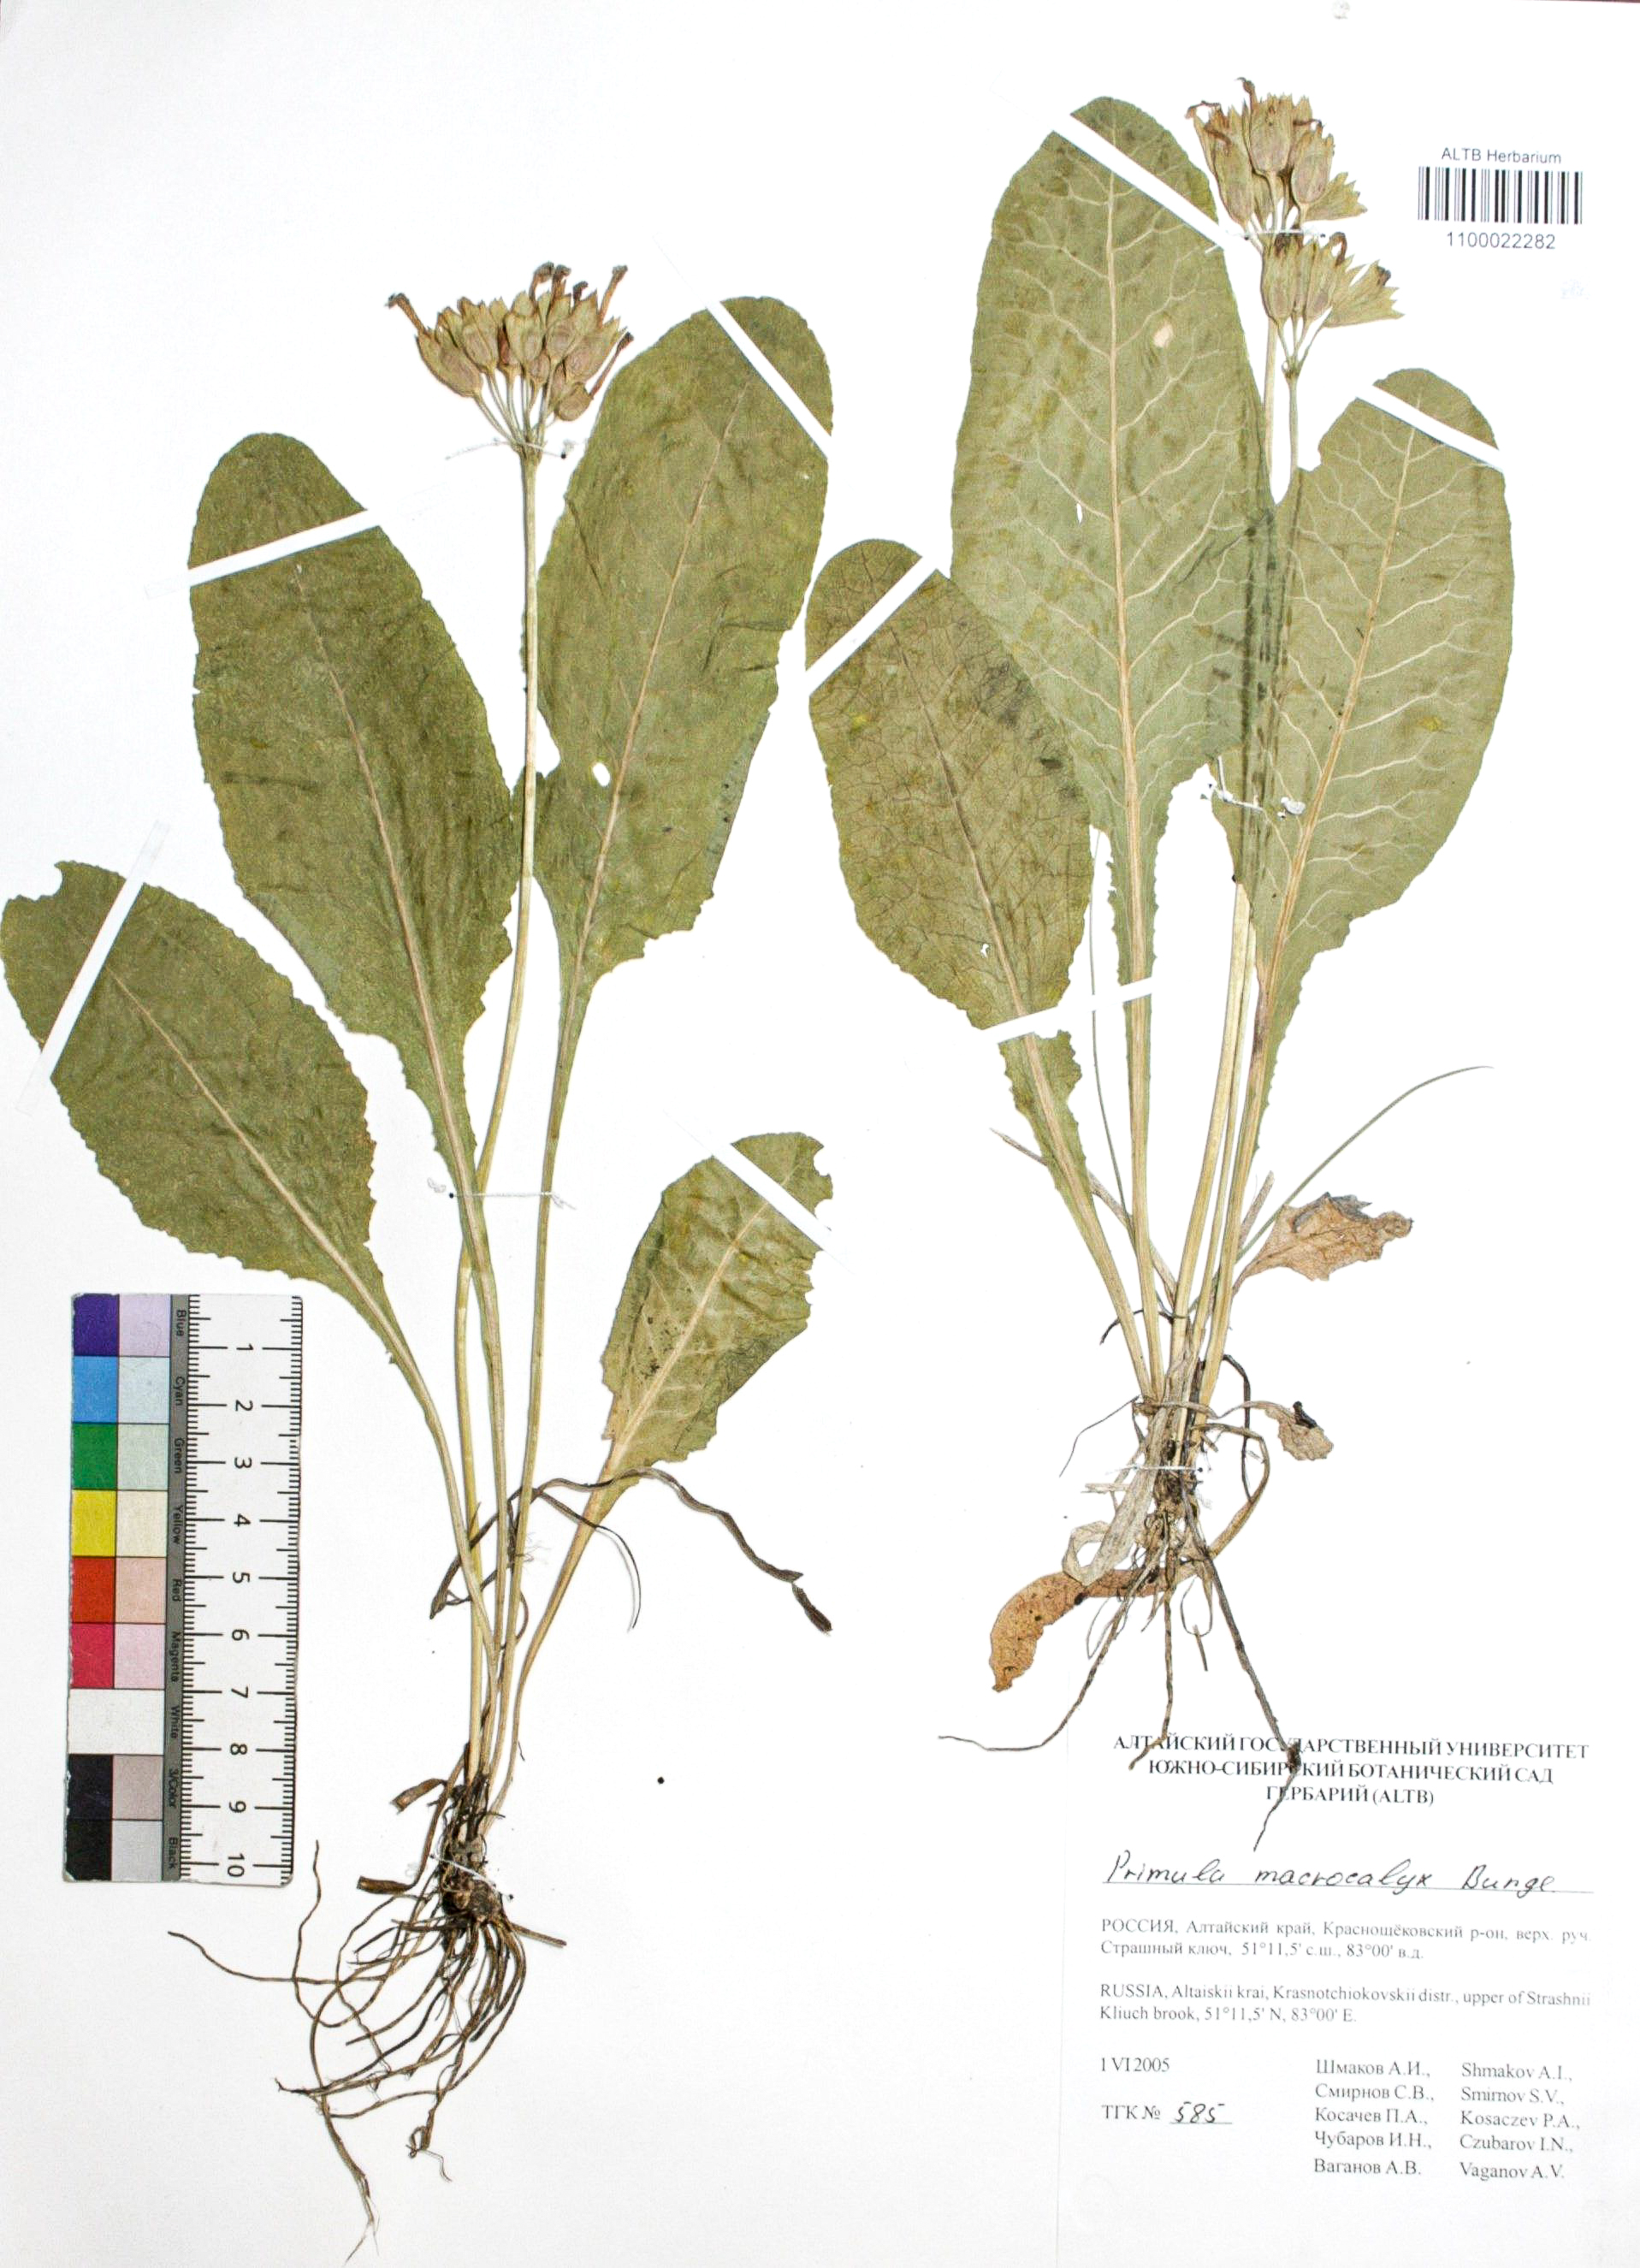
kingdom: Plantae
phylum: Tracheophyta
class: Magnoliopsida
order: Ericales
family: Primulaceae
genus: Primula
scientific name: Primula veris
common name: Cowslip
